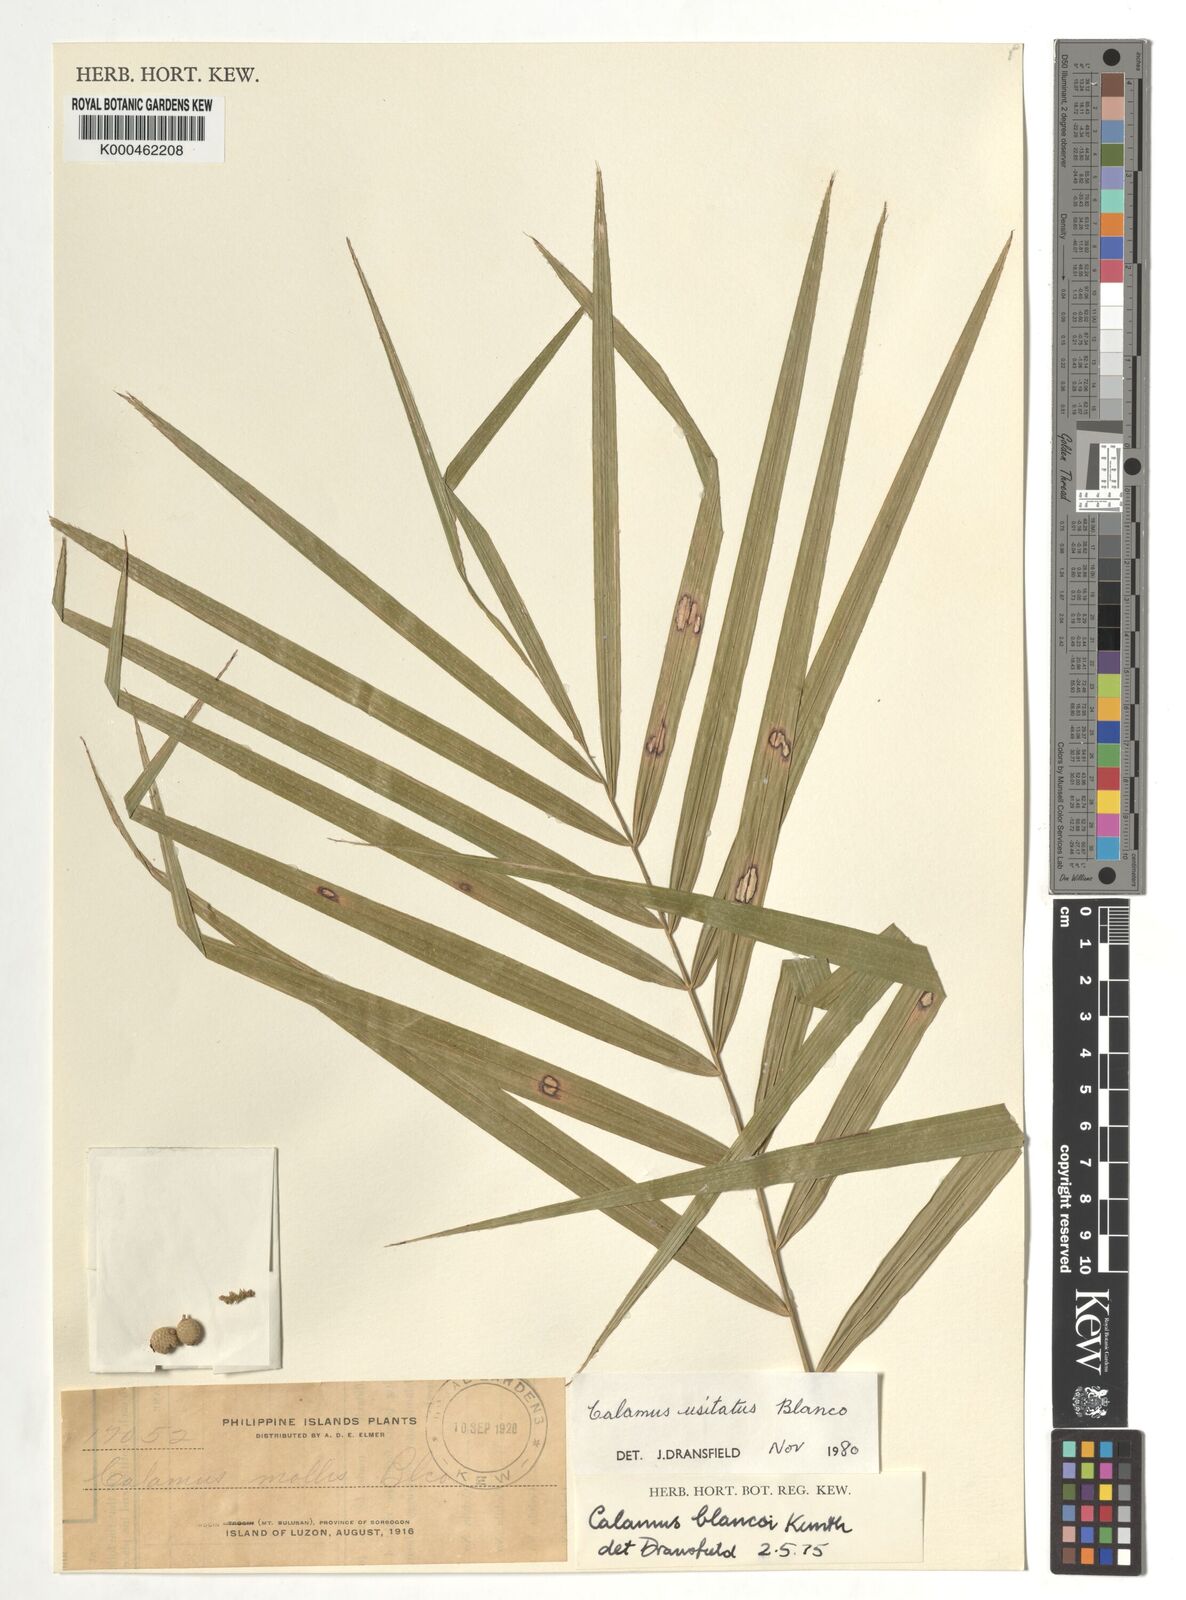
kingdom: Plantae
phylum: Tracheophyta
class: Liliopsida
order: Arecales
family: Arecaceae
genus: Calamus
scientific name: Calamus usitatus
